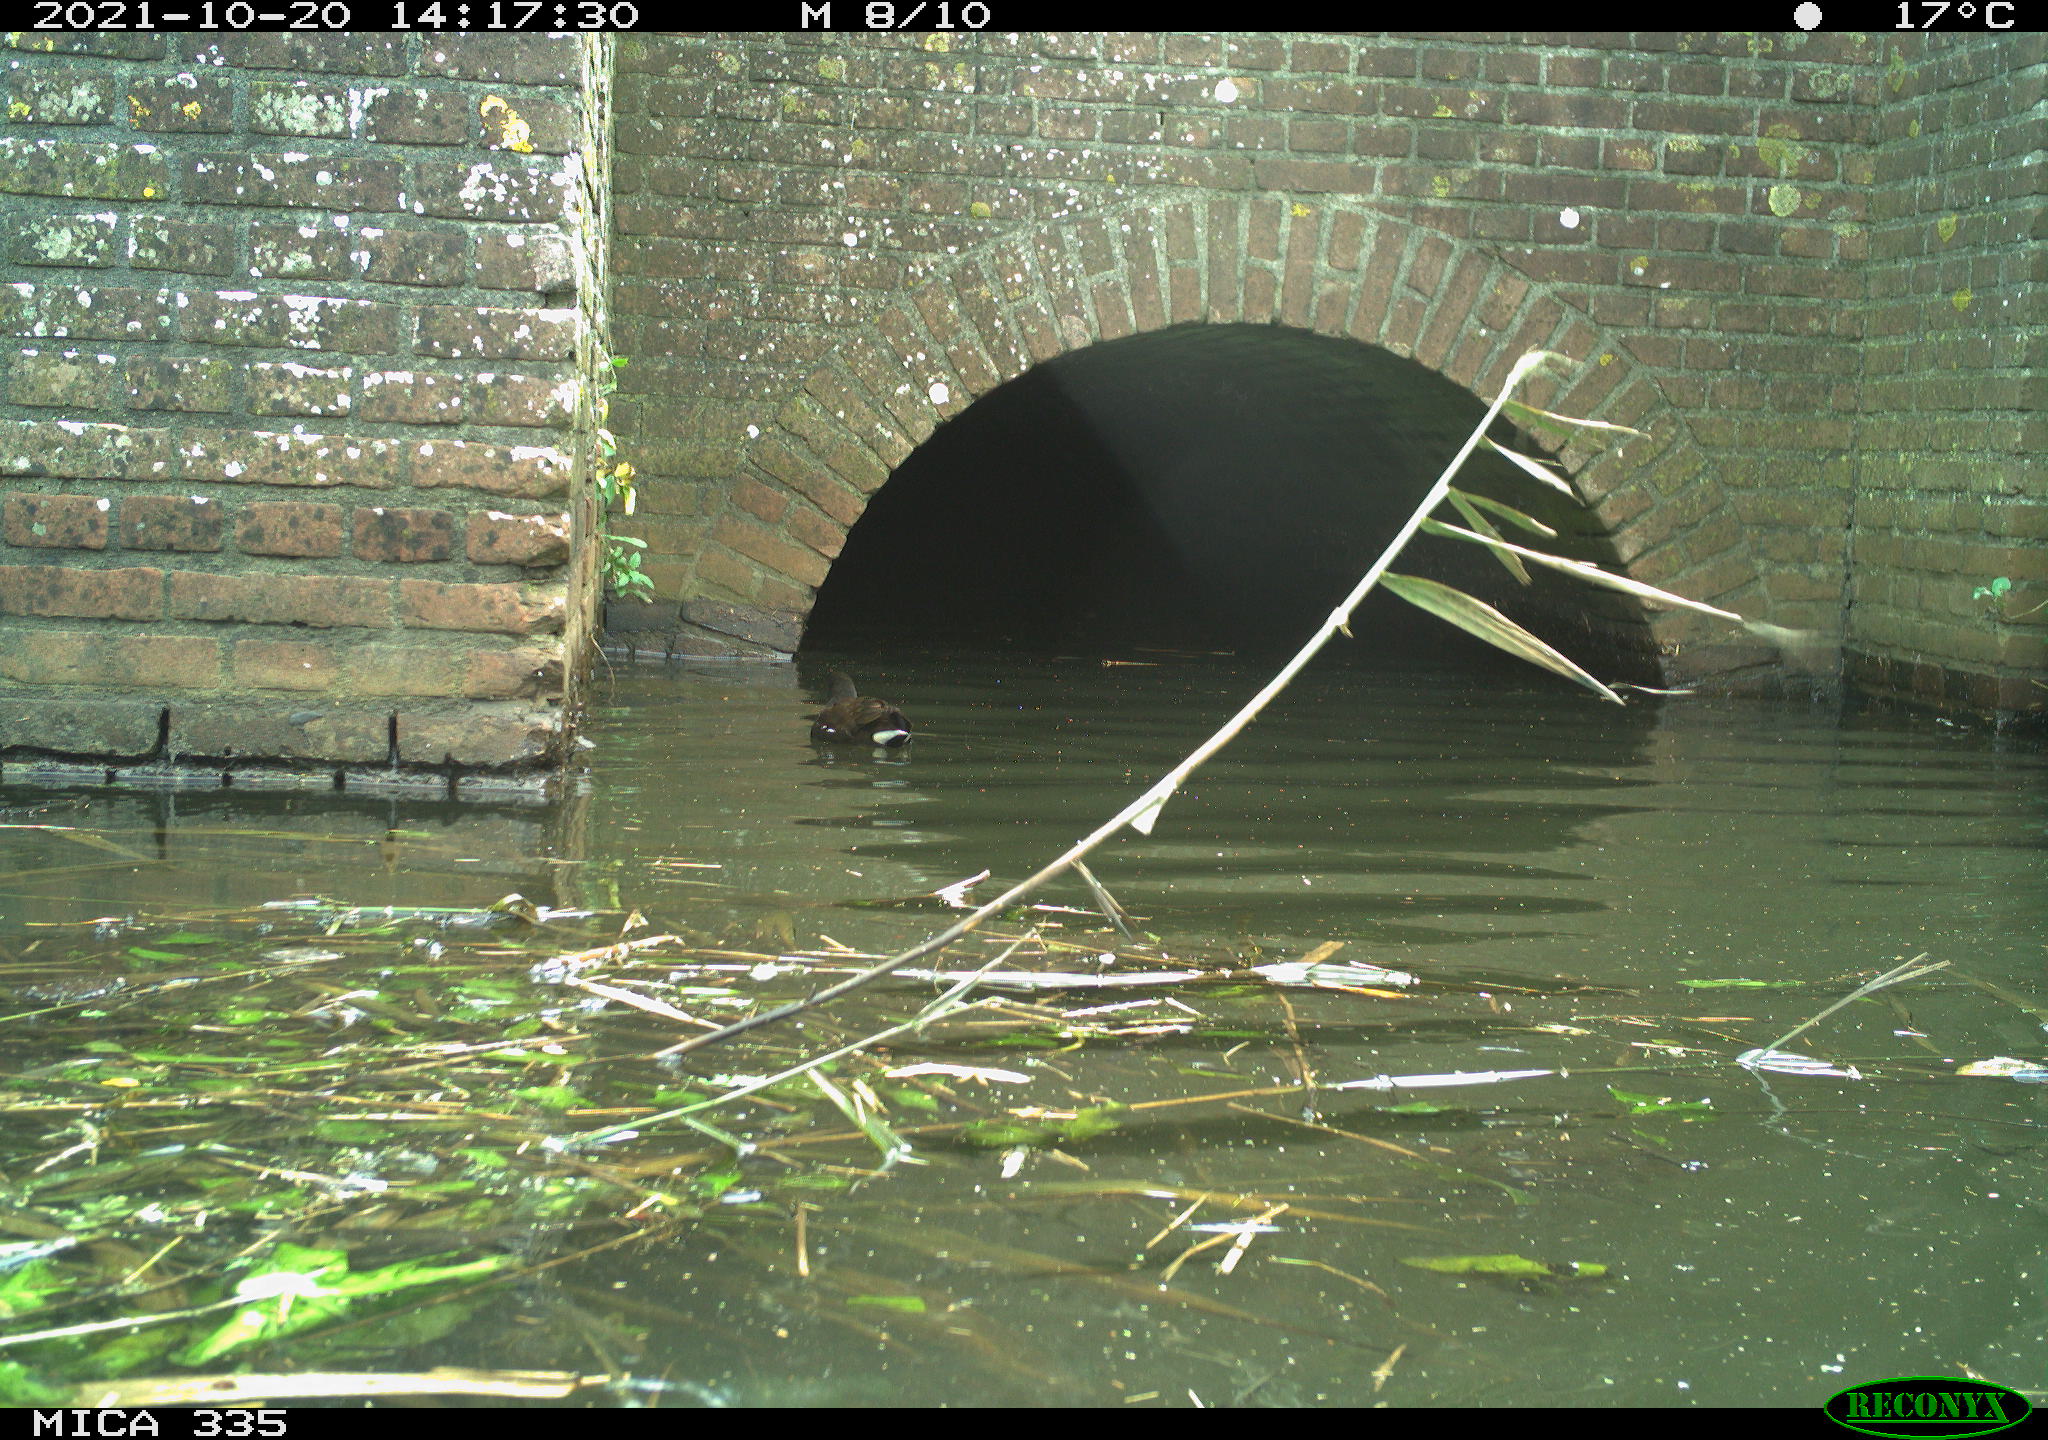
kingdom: Animalia
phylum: Chordata
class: Aves
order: Anseriformes
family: Anatidae
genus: Anas
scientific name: Anas platyrhynchos
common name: Mallard
